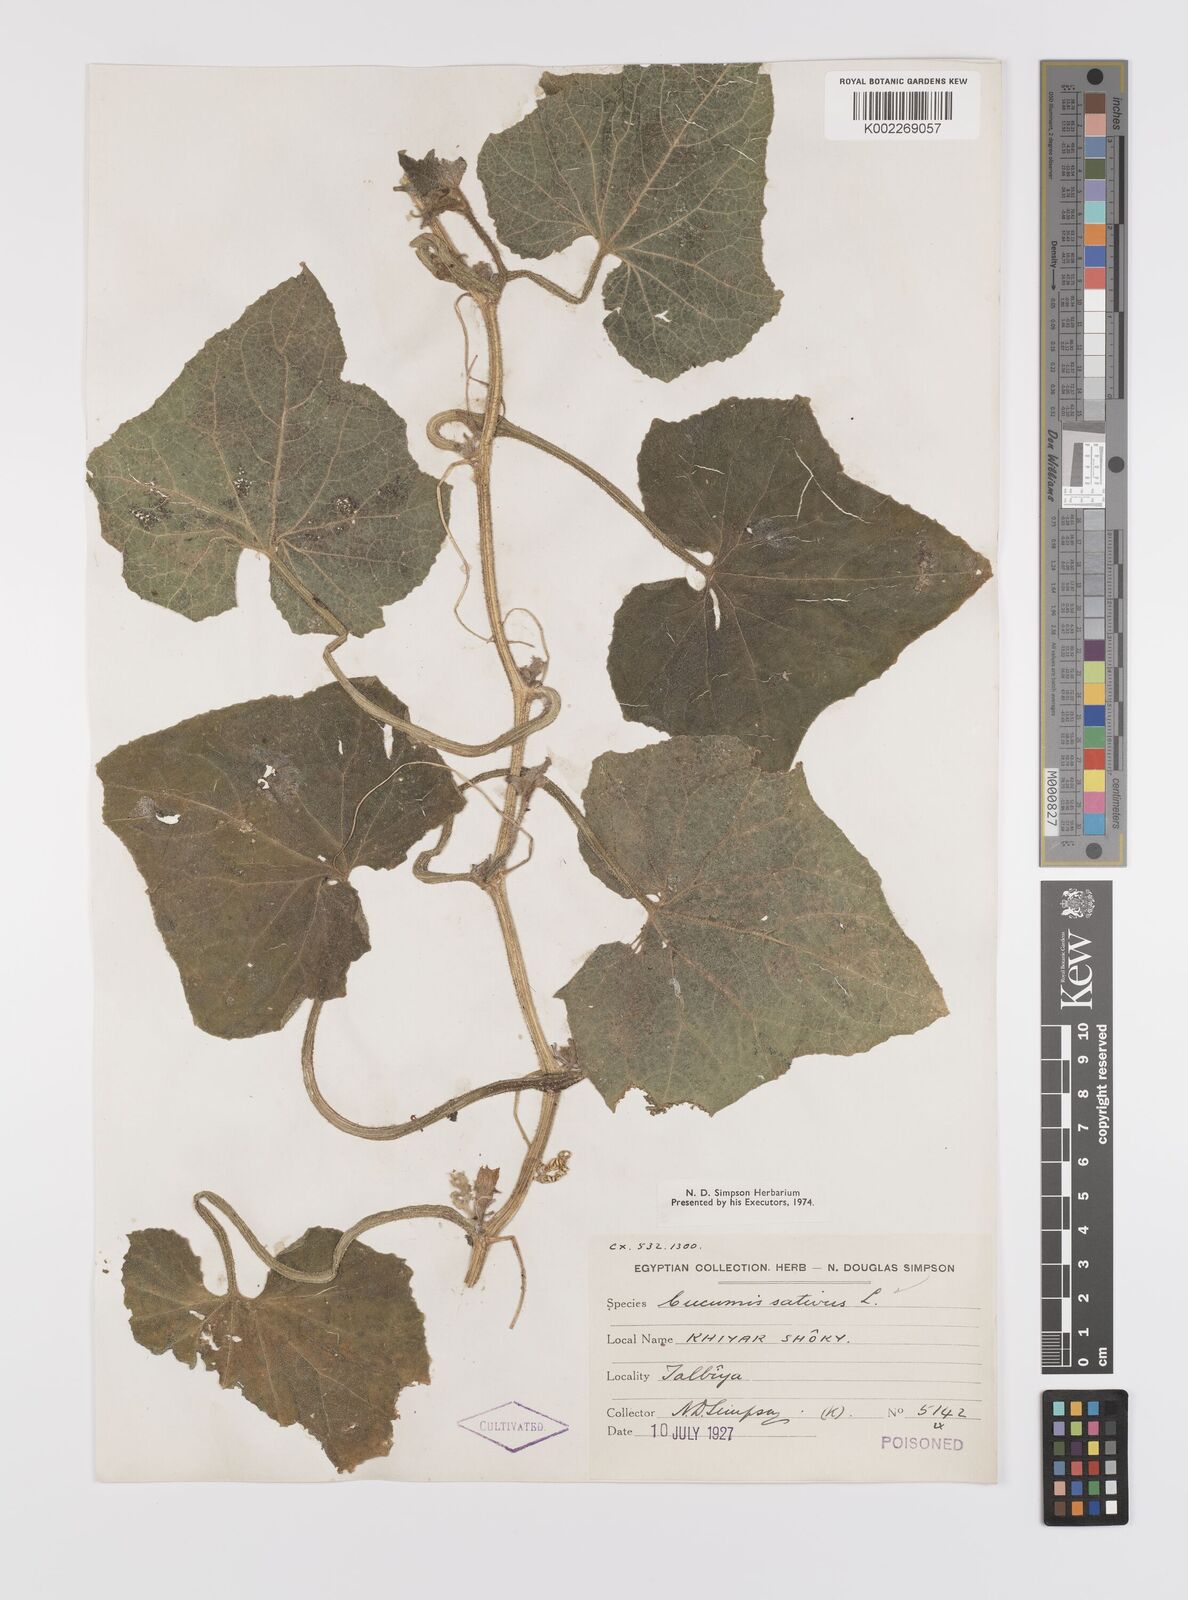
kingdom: Plantae
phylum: Tracheophyta
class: Magnoliopsida
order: Cucurbitales
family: Cucurbitaceae
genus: Cucumis
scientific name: Cucumis melo
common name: Melon
